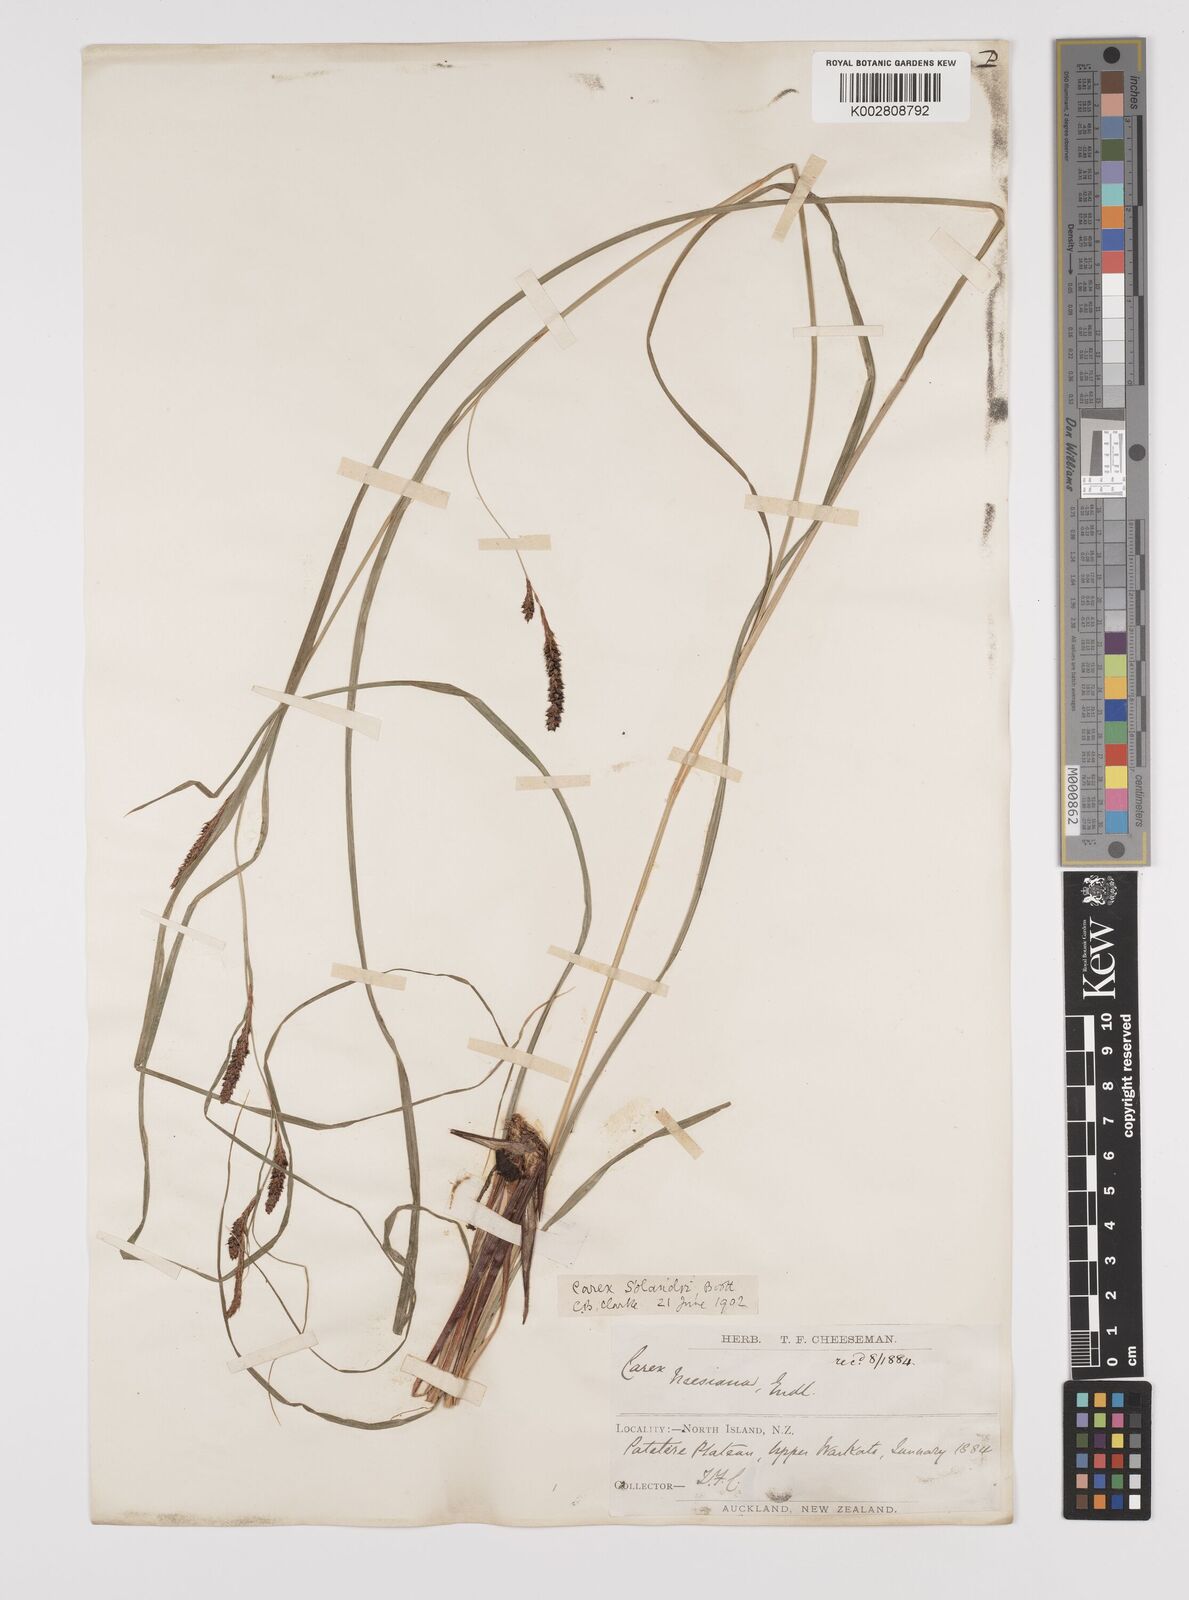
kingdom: Plantae
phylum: Tracheophyta
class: Liliopsida
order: Poales
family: Cyperaceae
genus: Carex
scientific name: Carex dissita
